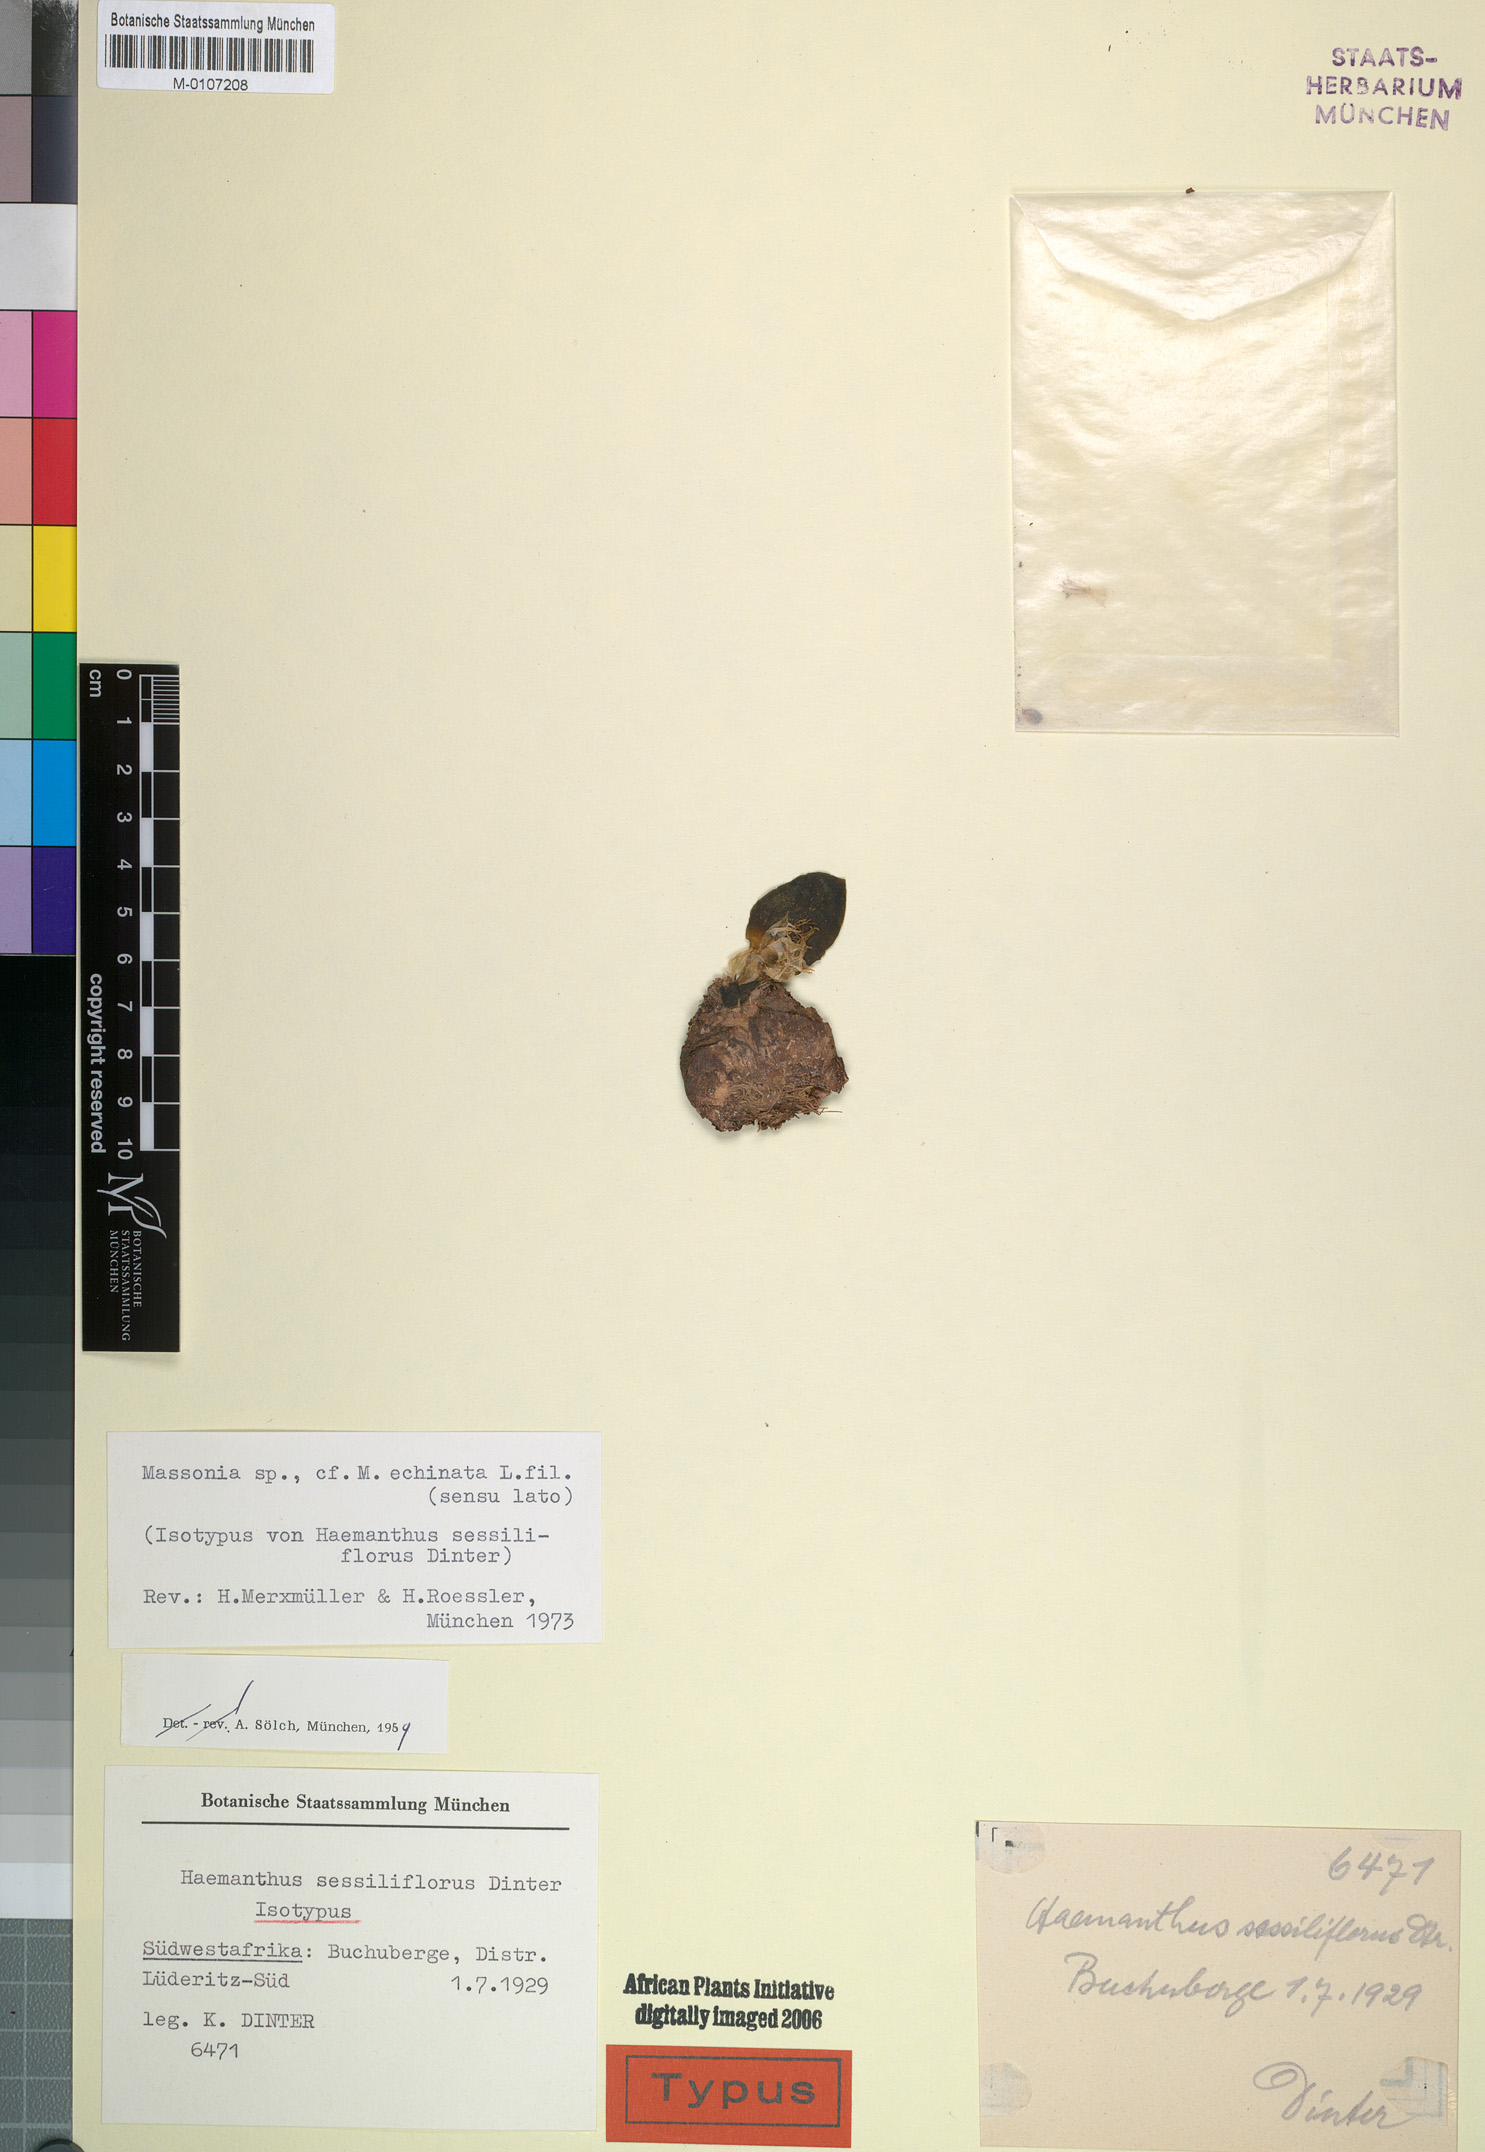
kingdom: Plantae
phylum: Tracheophyta
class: Liliopsida
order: Asparagales
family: Asparagaceae
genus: Massonia
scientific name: Massonia echinata
